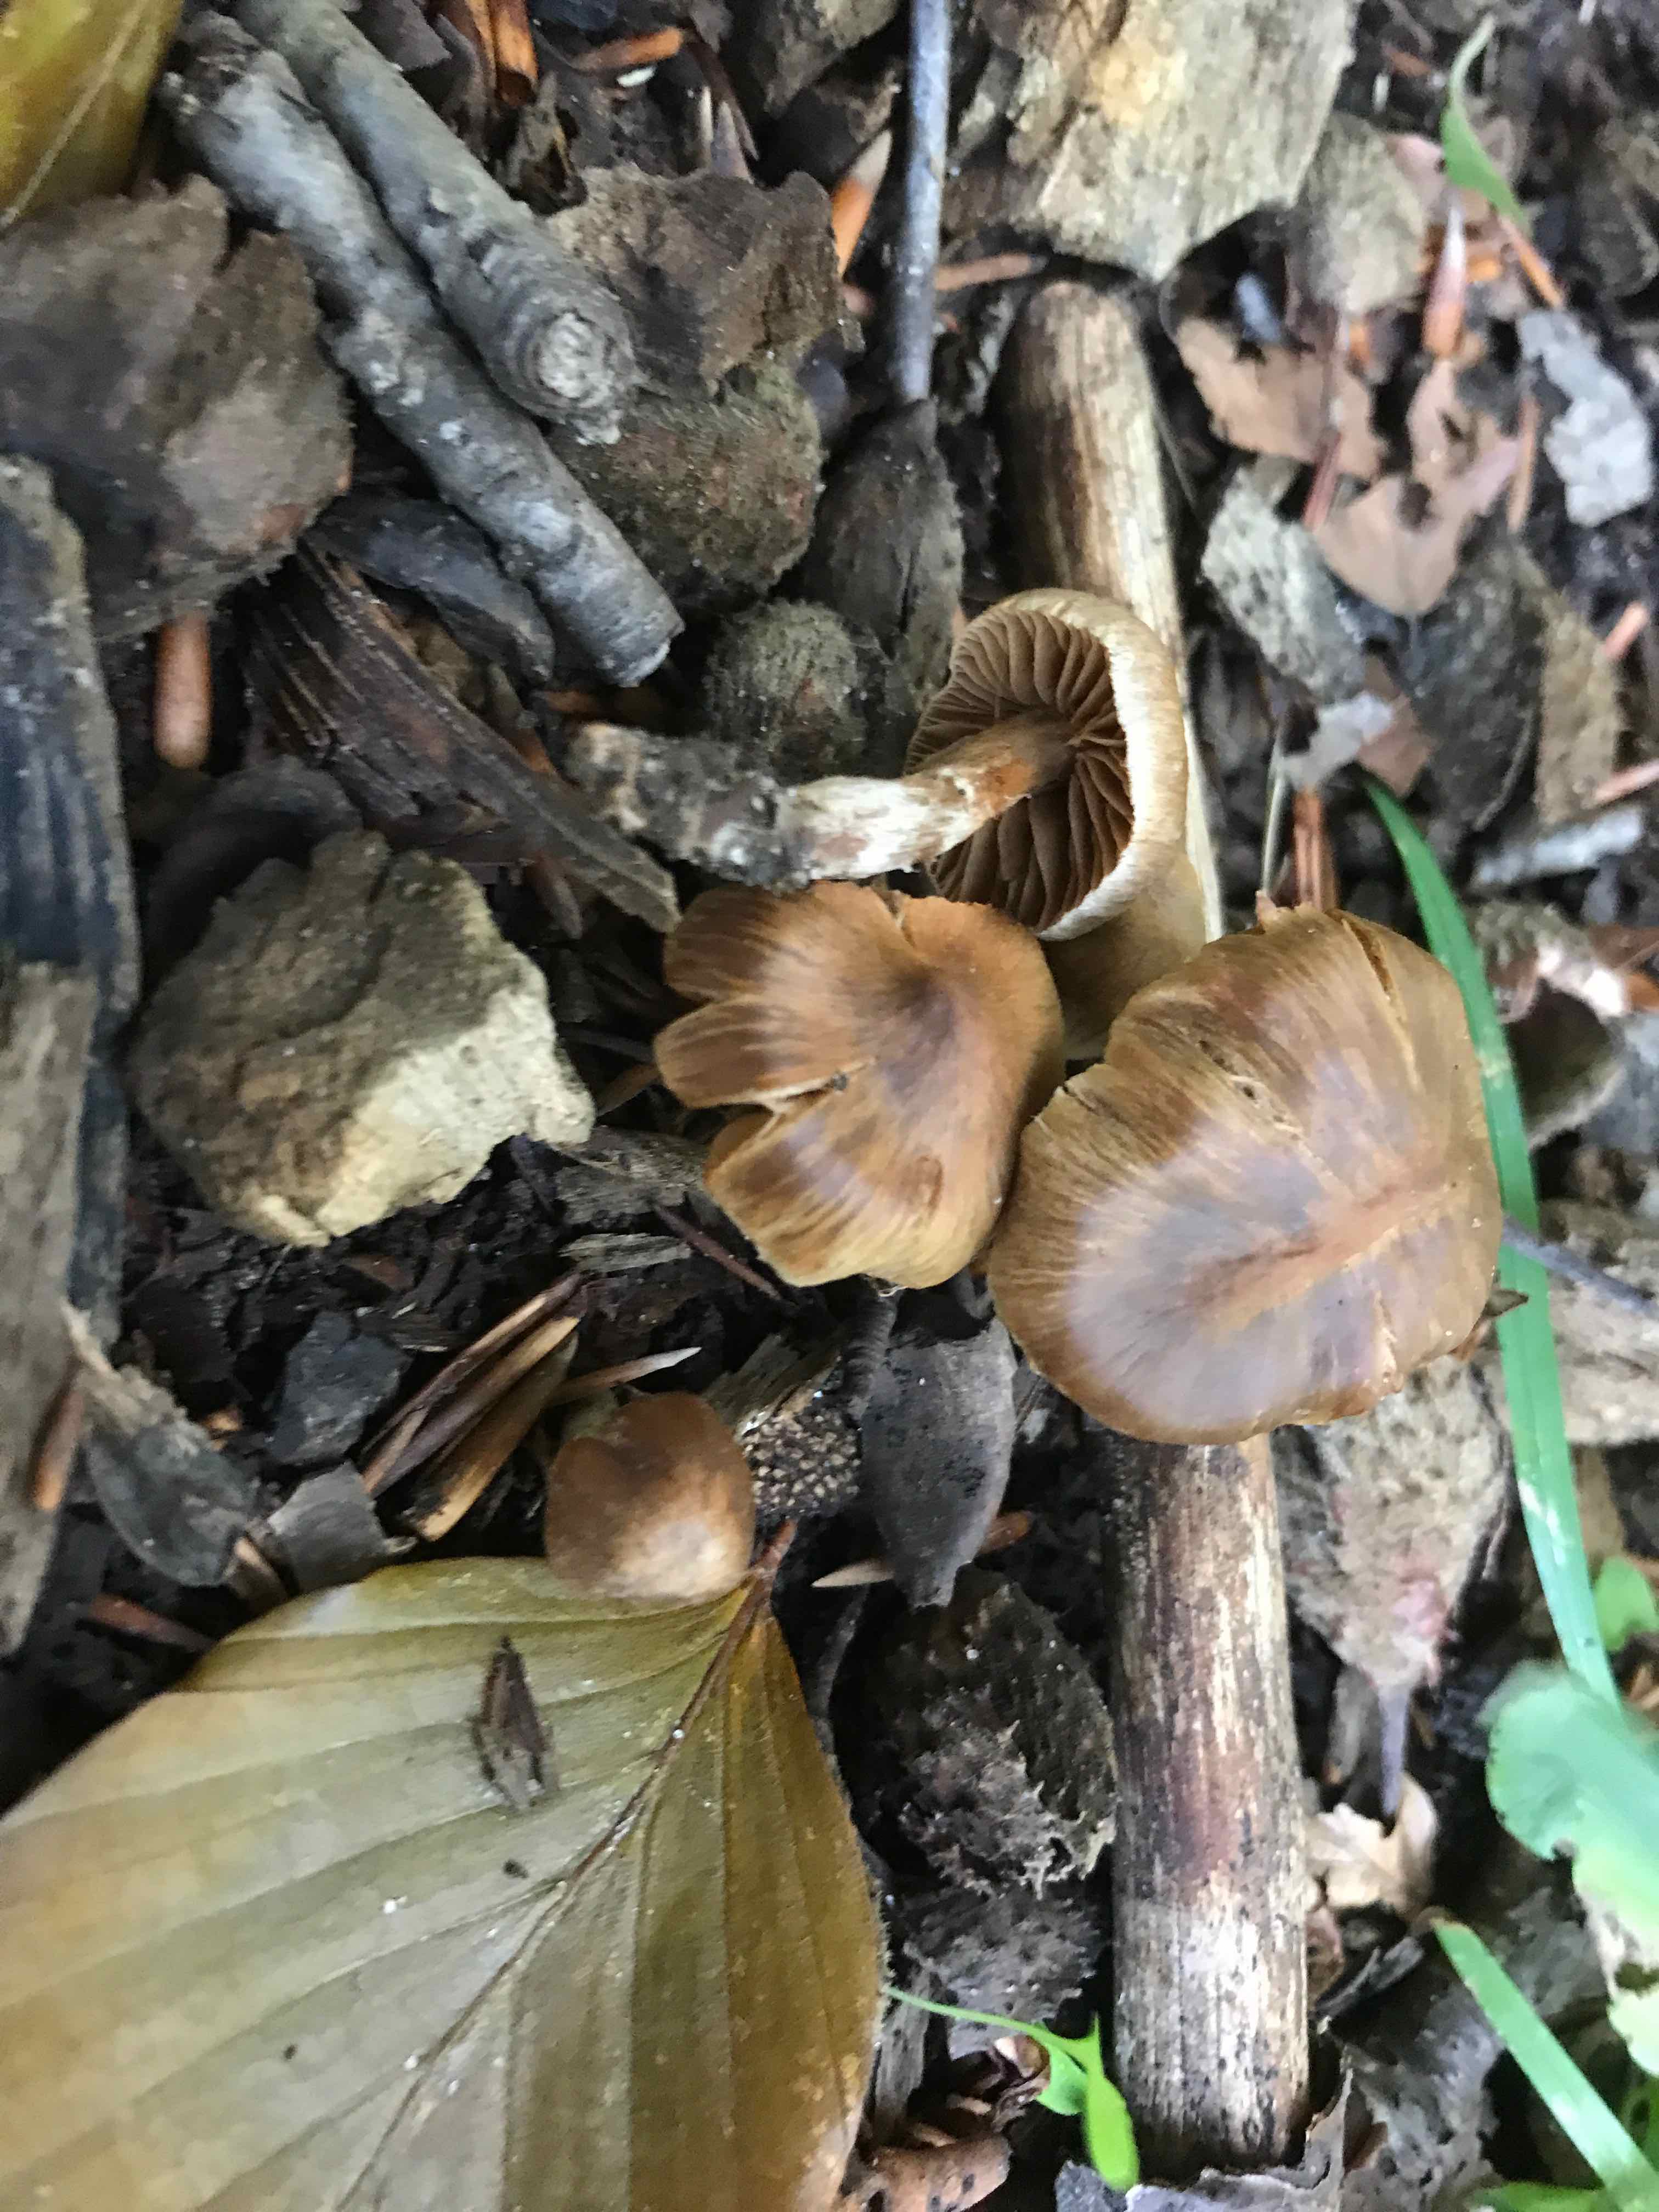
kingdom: Fungi
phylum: Basidiomycota
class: Agaricomycetes
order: Agaricales
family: Cortinariaceae
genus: Cortinarius
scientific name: Cortinarius
